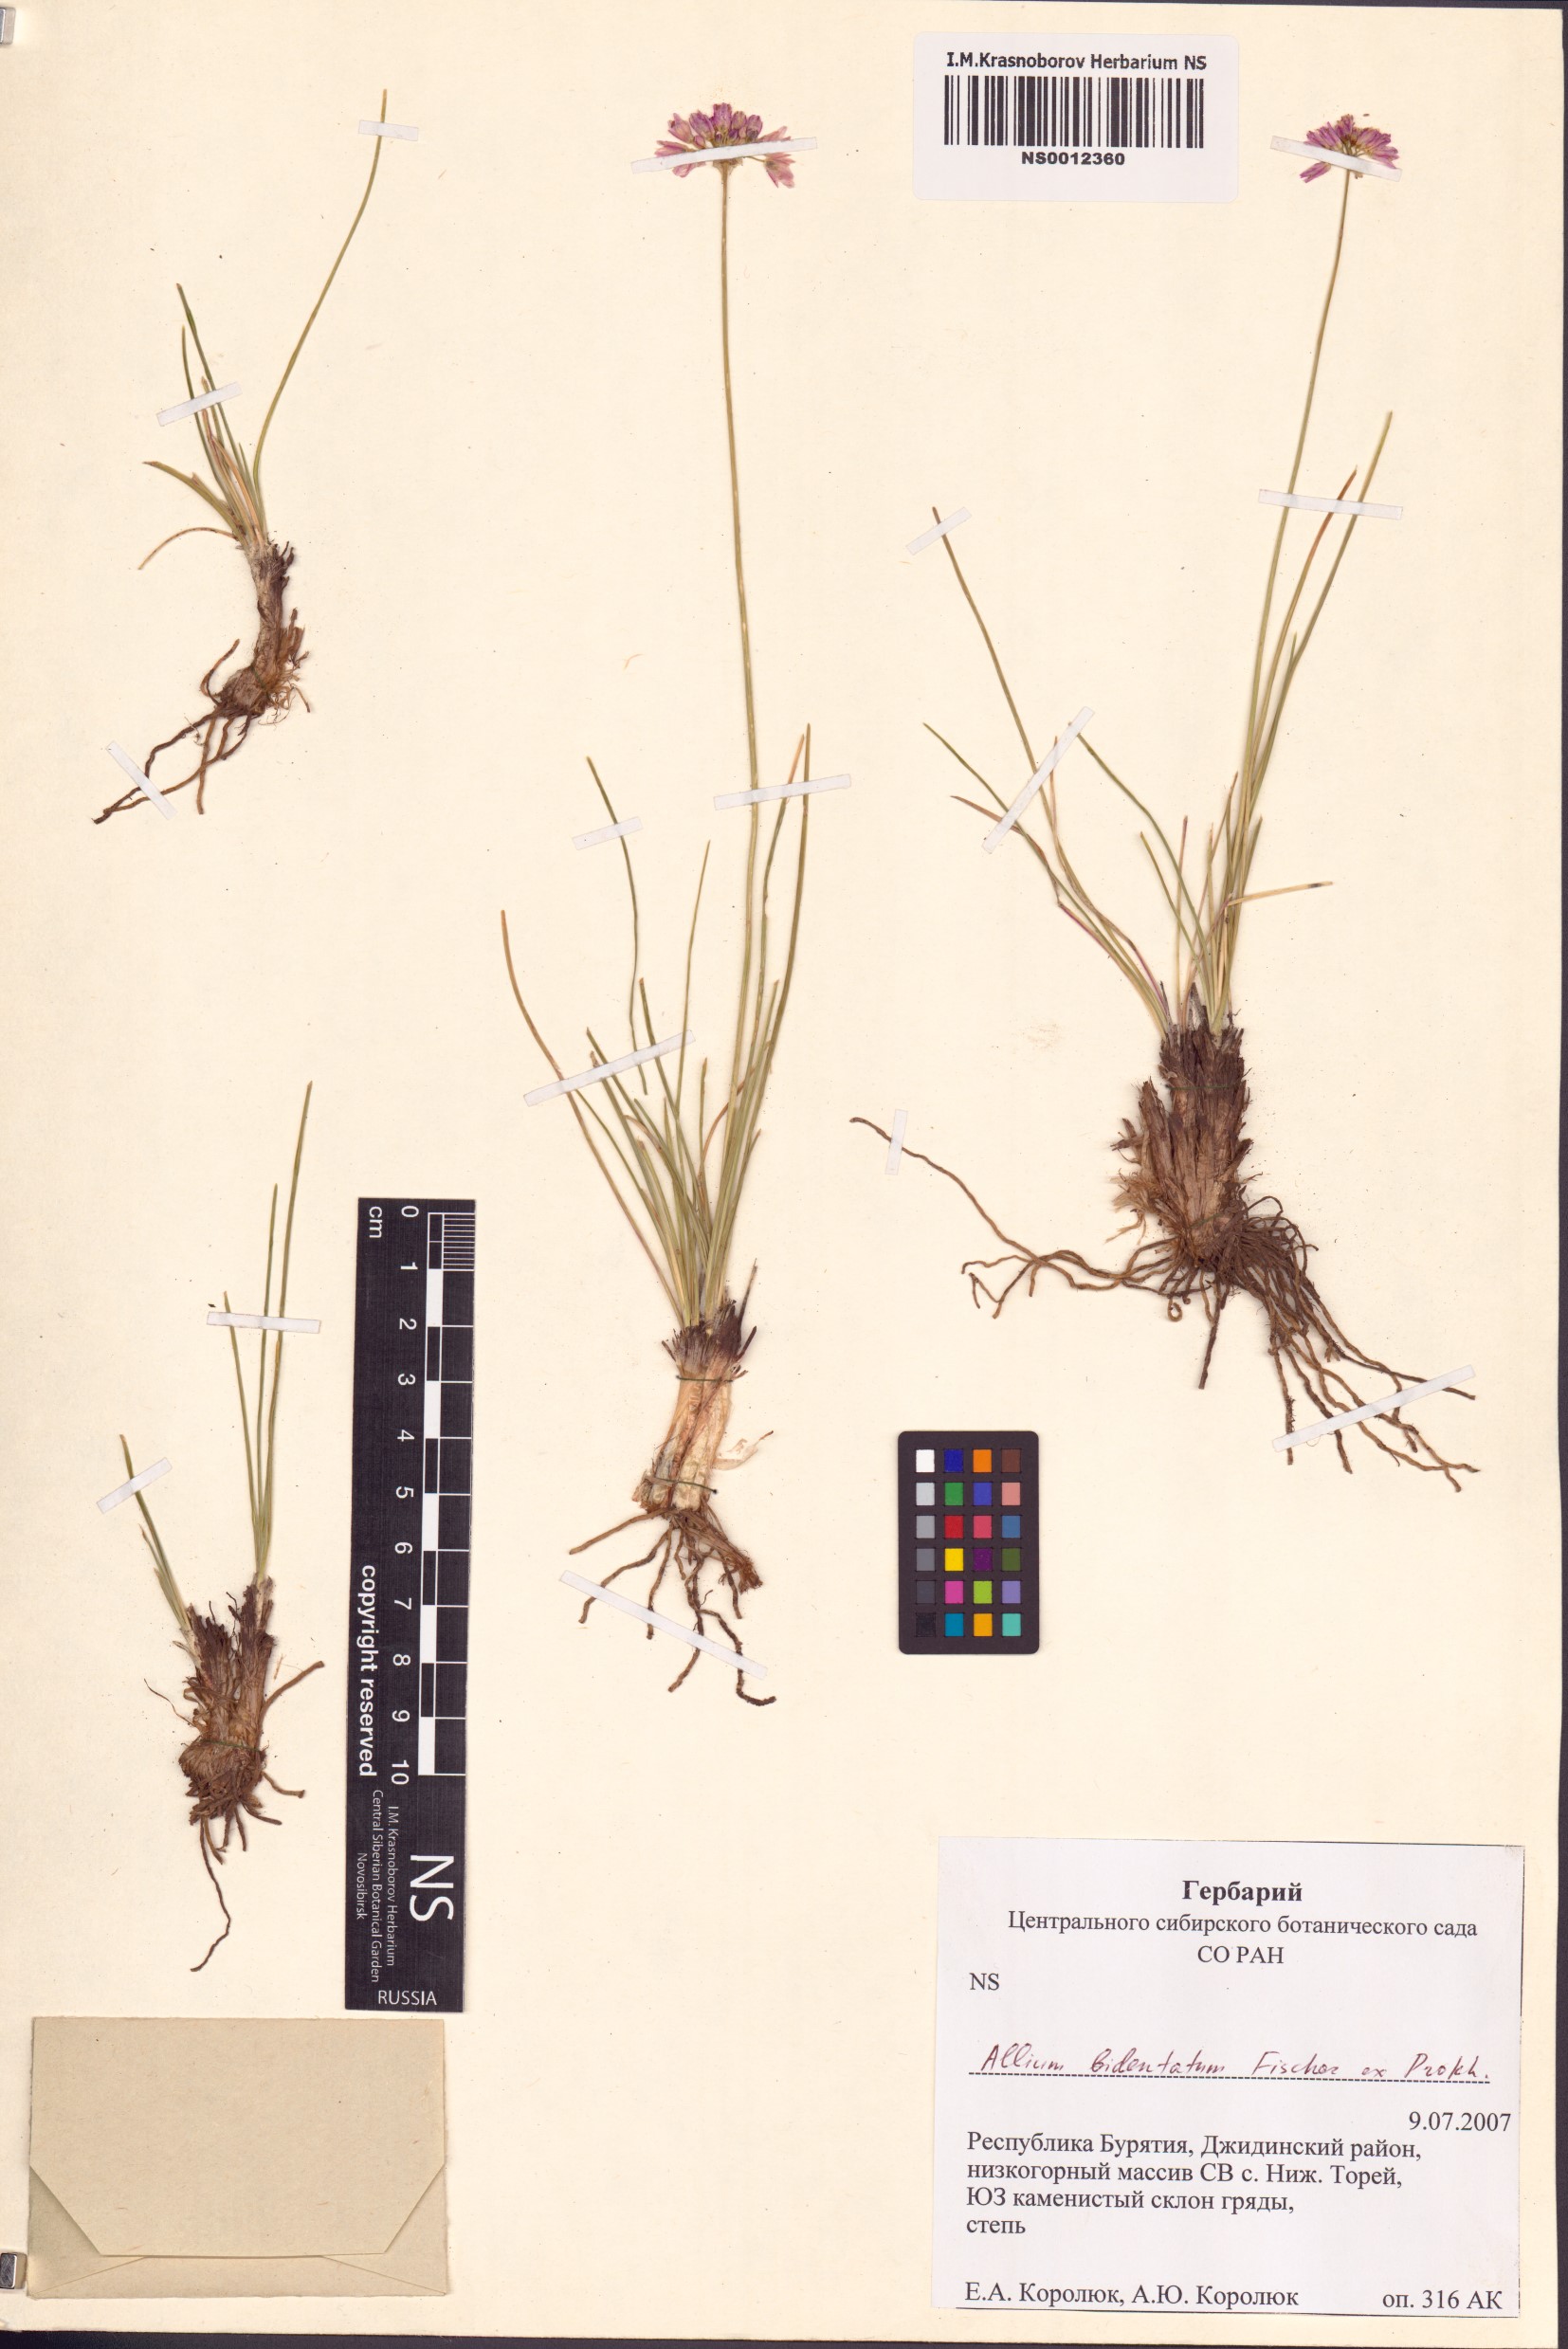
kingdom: Plantae
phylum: Tracheophyta
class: Liliopsida
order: Asparagales
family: Amaryllidaceae
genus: Allium
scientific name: Allium bidentatum
